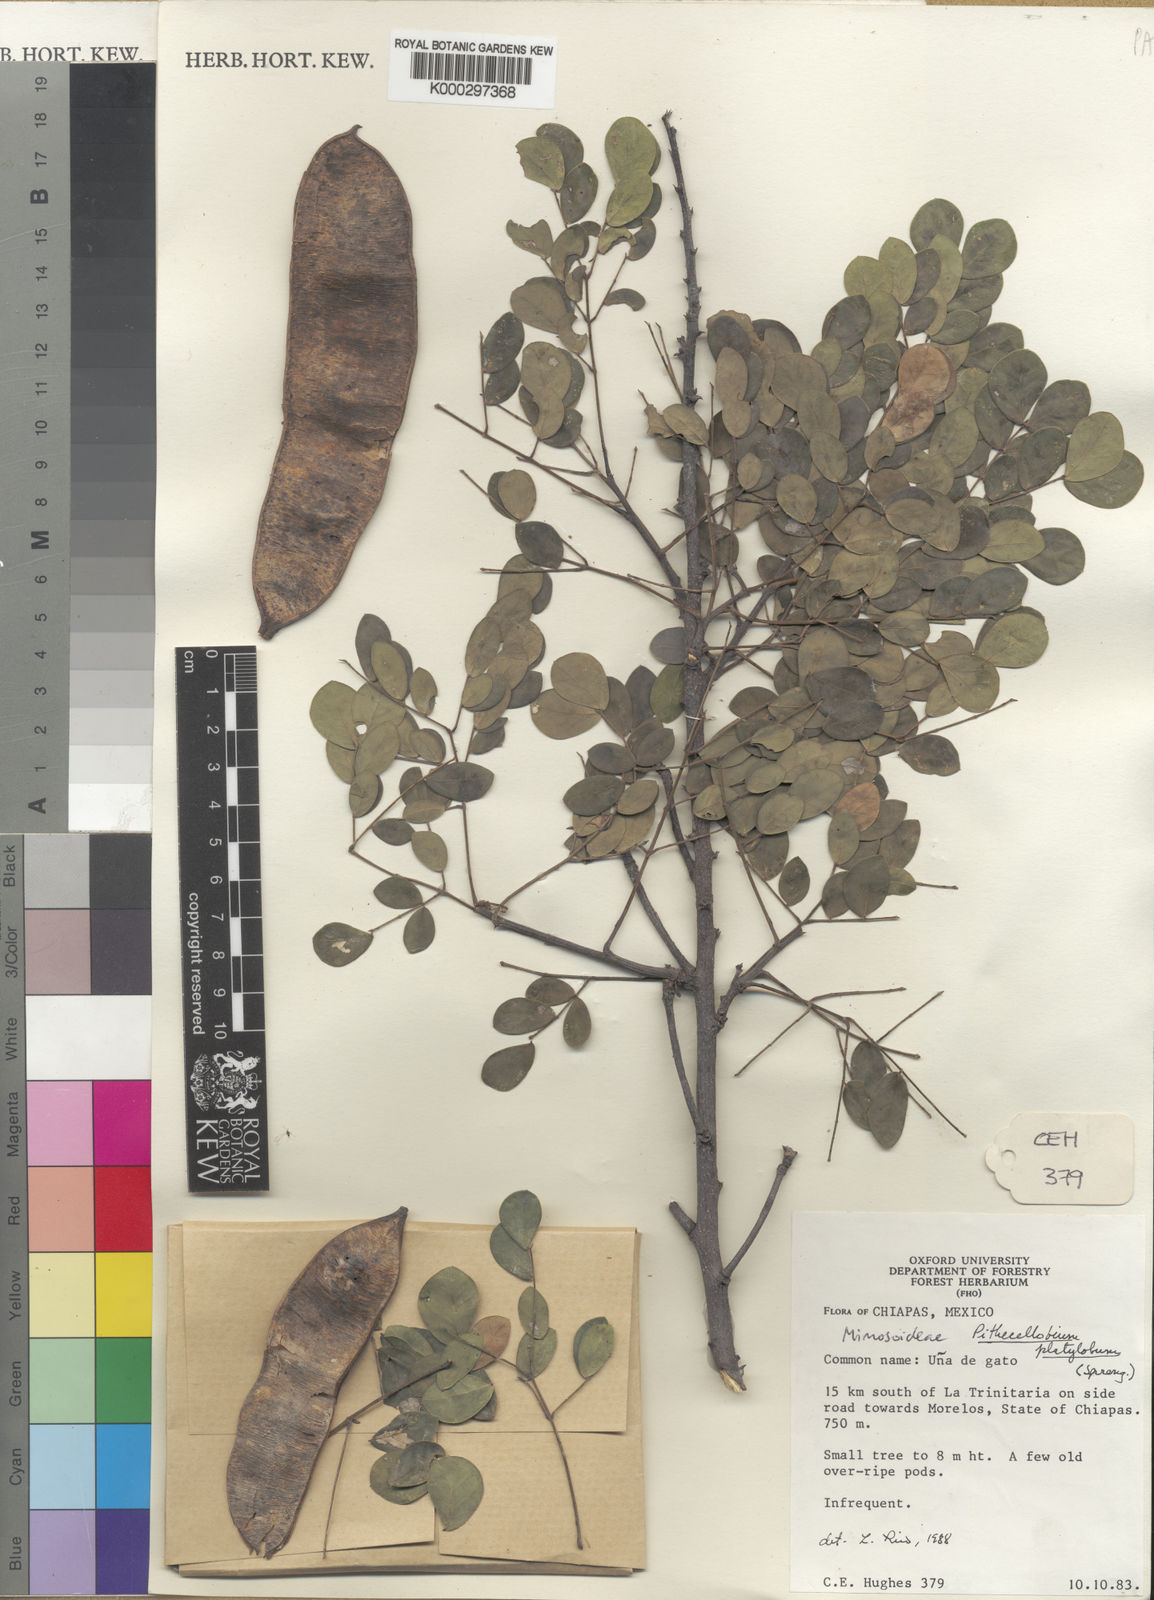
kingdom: Plantae
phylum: Tracheophyta
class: Magnoliopsida
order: Fabales
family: Fabaceae
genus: Havardia
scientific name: Havardia platyloba
